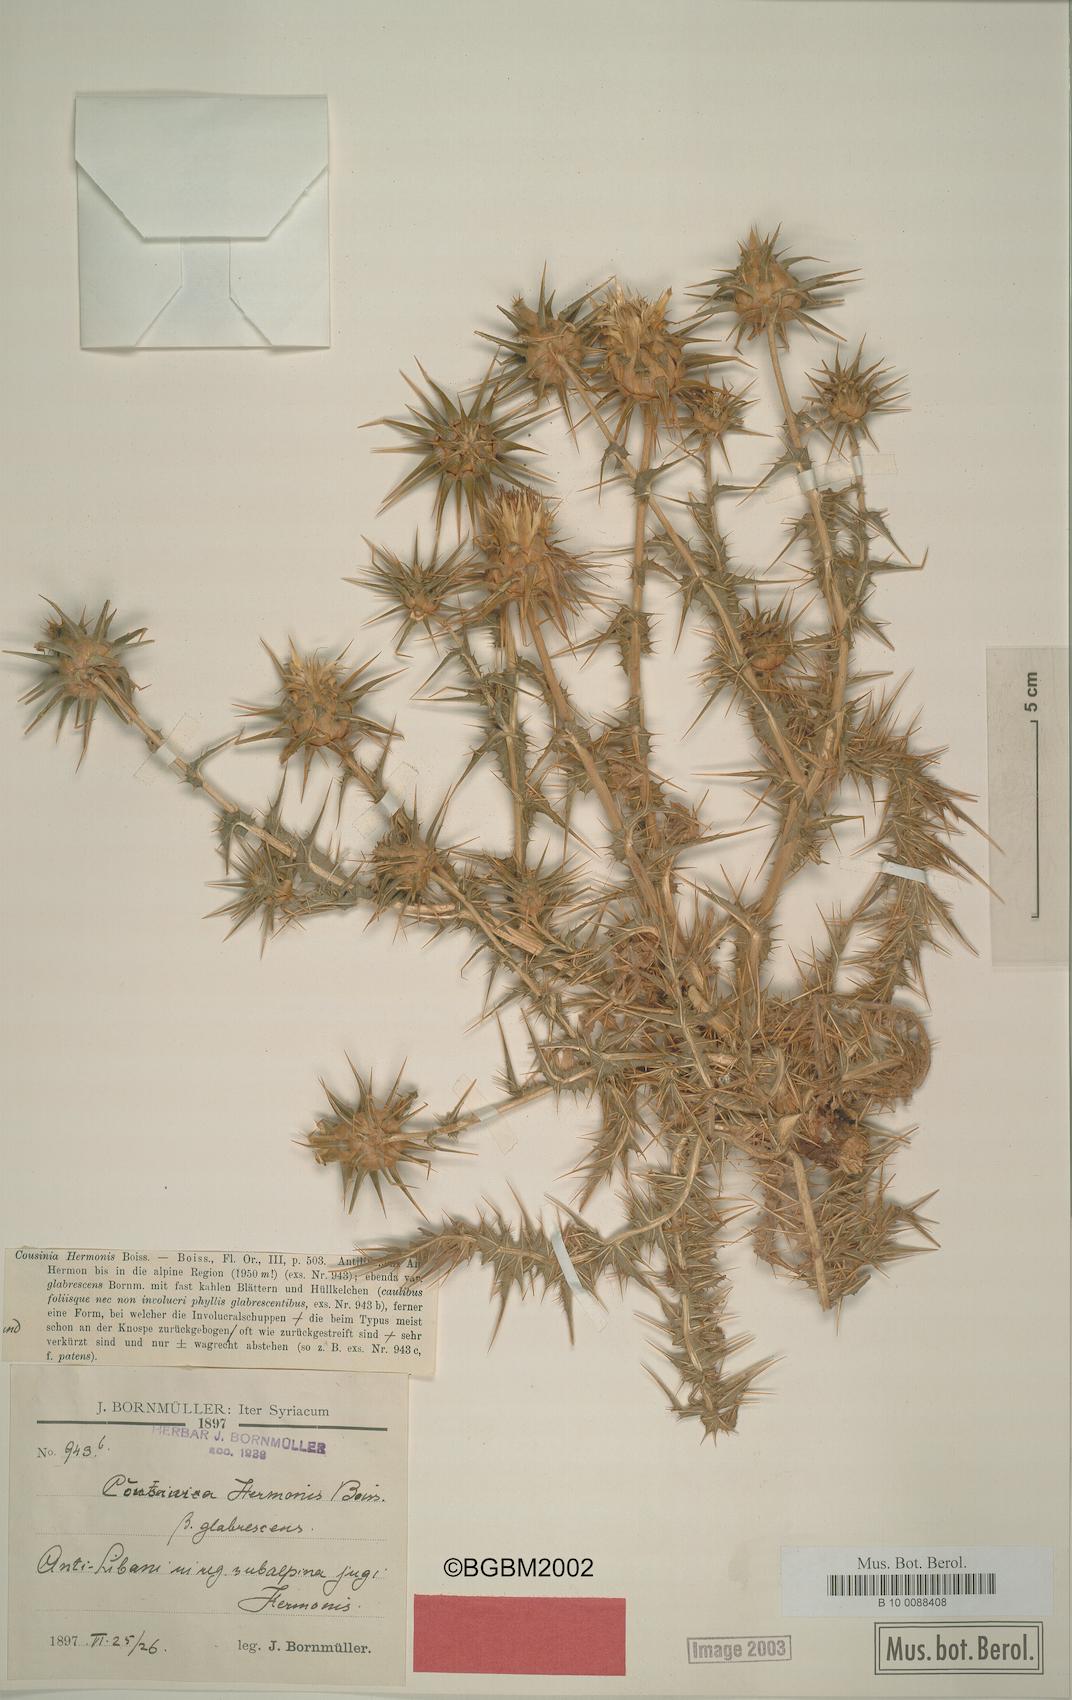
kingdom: Plantae
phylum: Tracheophyta
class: Magnoliopsida
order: Asterales
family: Asteraceae
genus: Cousinia
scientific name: Cousinia libanotica
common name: Lebanon cousinia
